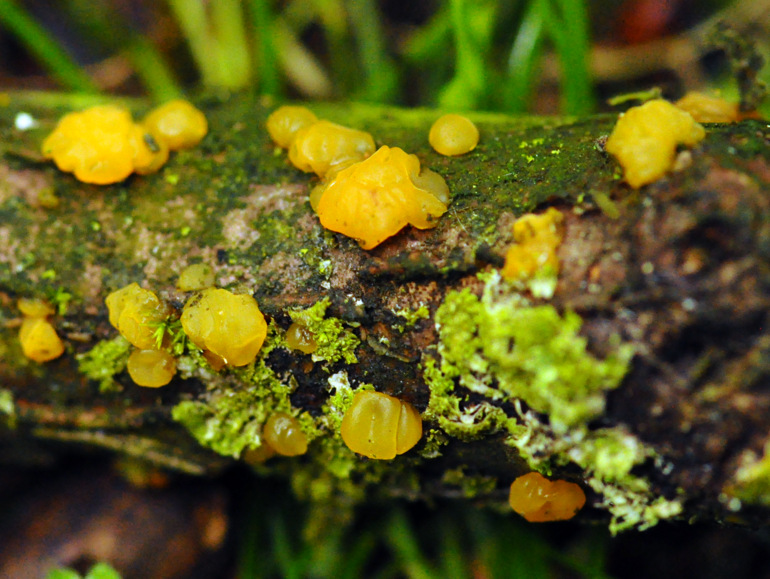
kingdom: Fungi
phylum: Basidiomycota
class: Dacrymycetes
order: Dacrymycetales
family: Dacrymycetaceae
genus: Dacrymyces
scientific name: Dacrymyces lacrymalis
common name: rynket tåresvamp
